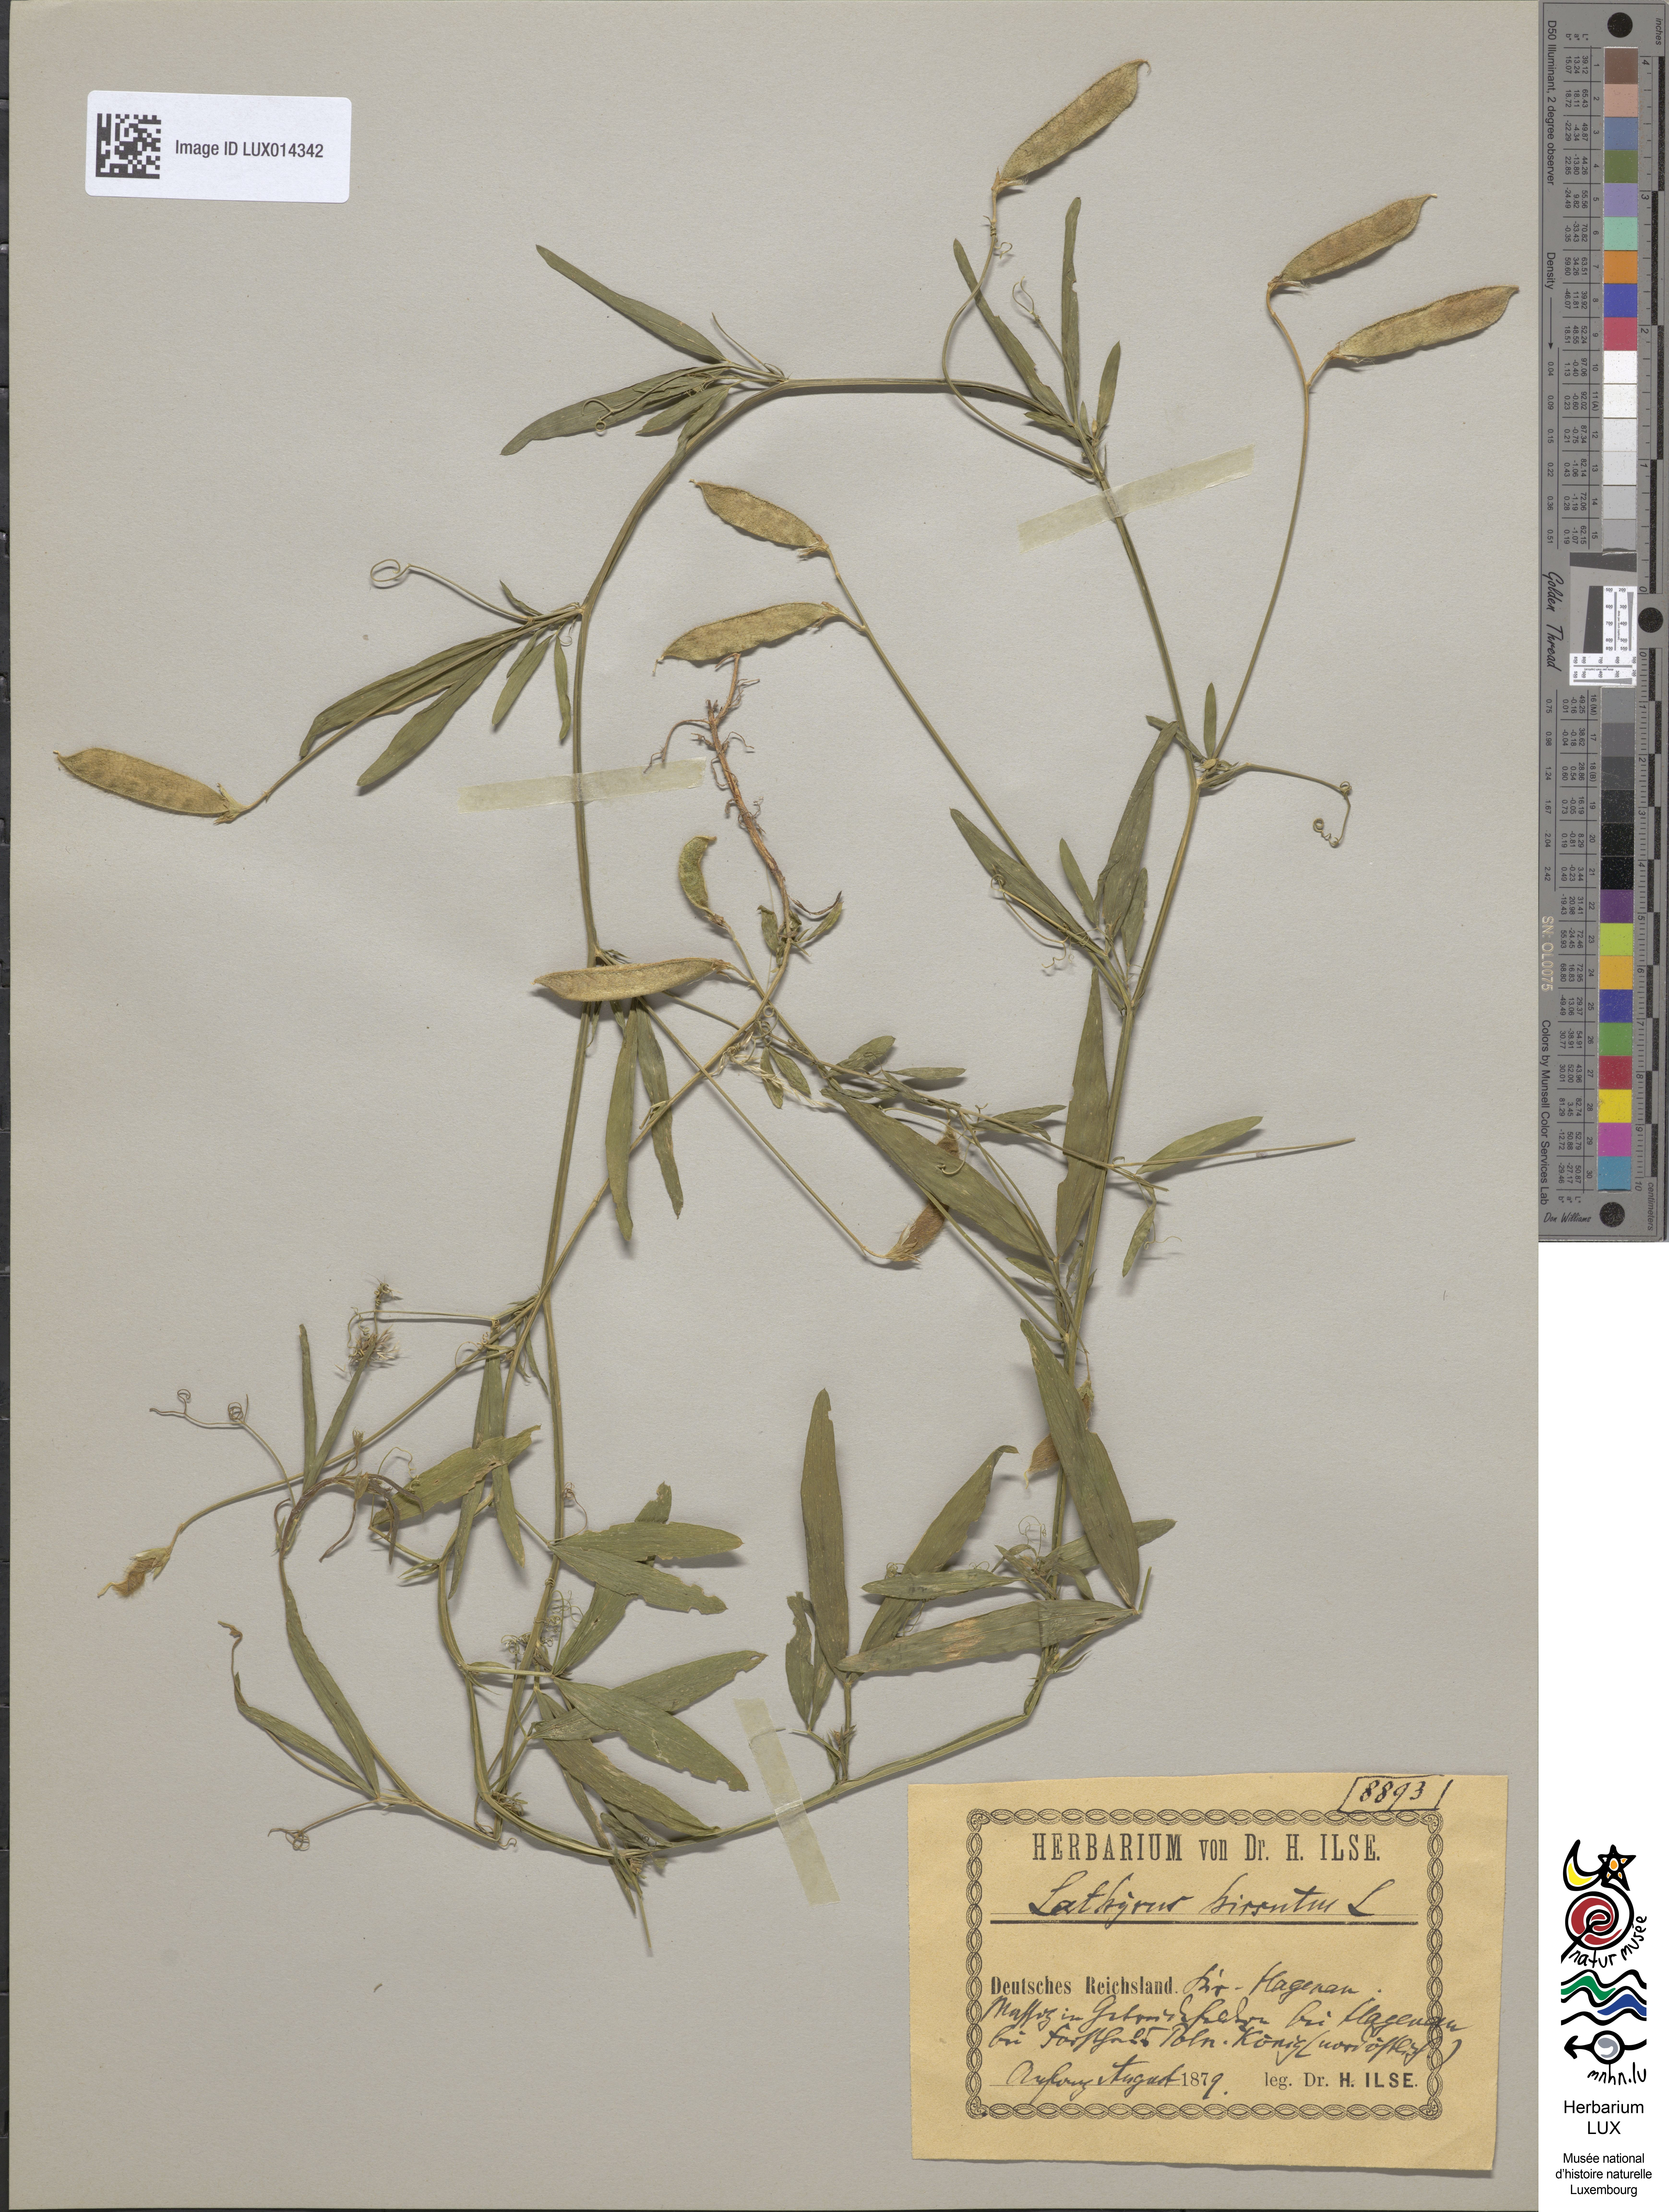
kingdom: Plantae
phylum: Tracheophyta
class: Magnoliopsida
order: Fabales
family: Fabaceae
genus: Lathyrus
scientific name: Lathyrus hirsutus
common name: Hairy vetchling
